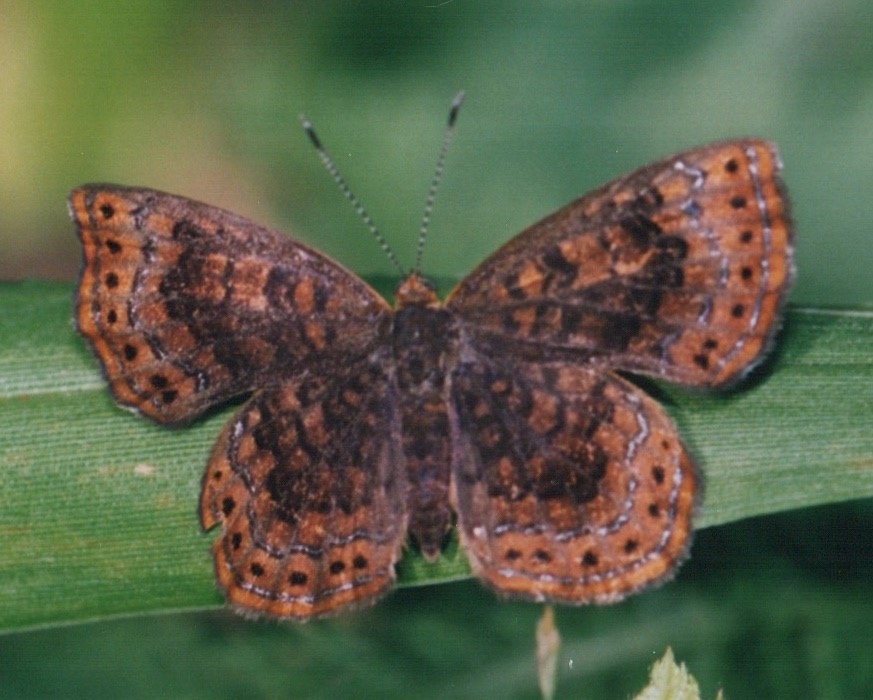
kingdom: Animalia
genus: Calephelis
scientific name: Calephelis borealis
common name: Northern Metalmark
